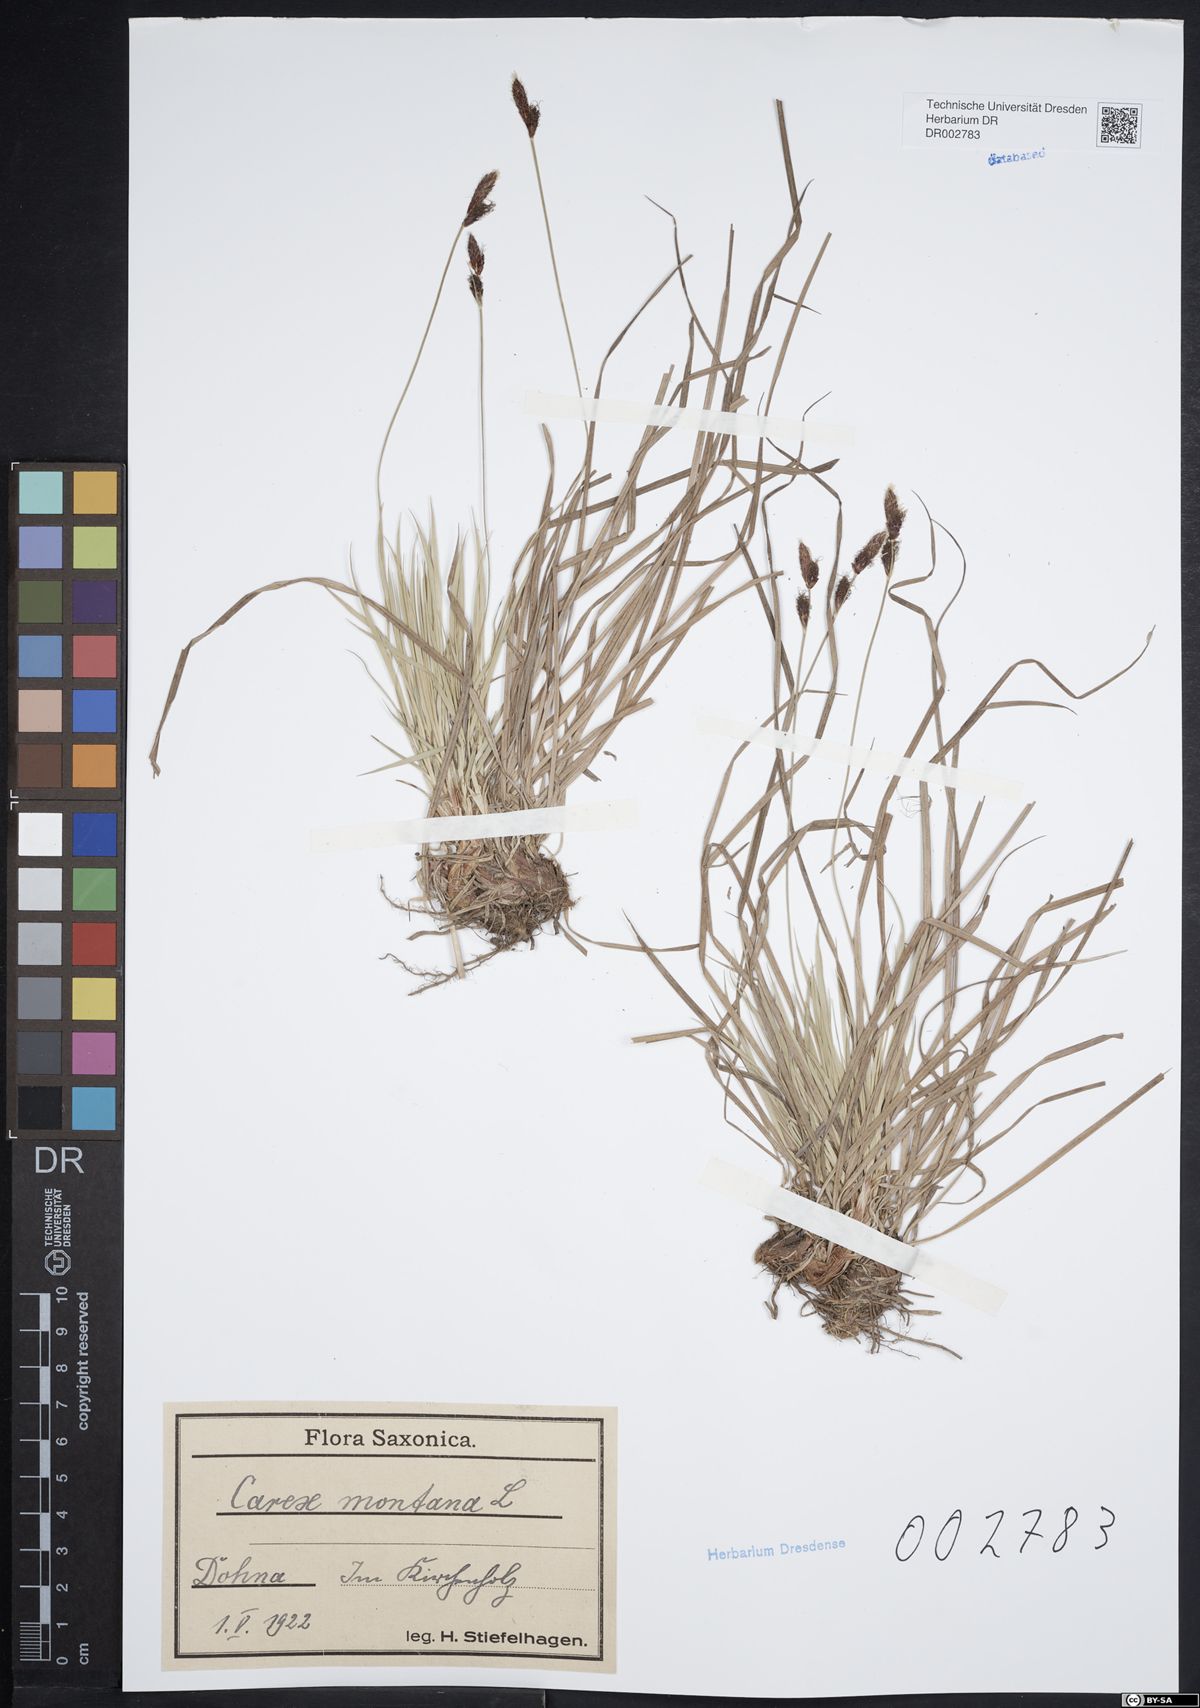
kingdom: Plantae
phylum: Tracheophyta
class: Liliopsida
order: Poales
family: Cyperaceae
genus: Carex
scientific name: Carex montana
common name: Soft-leaved sedge
